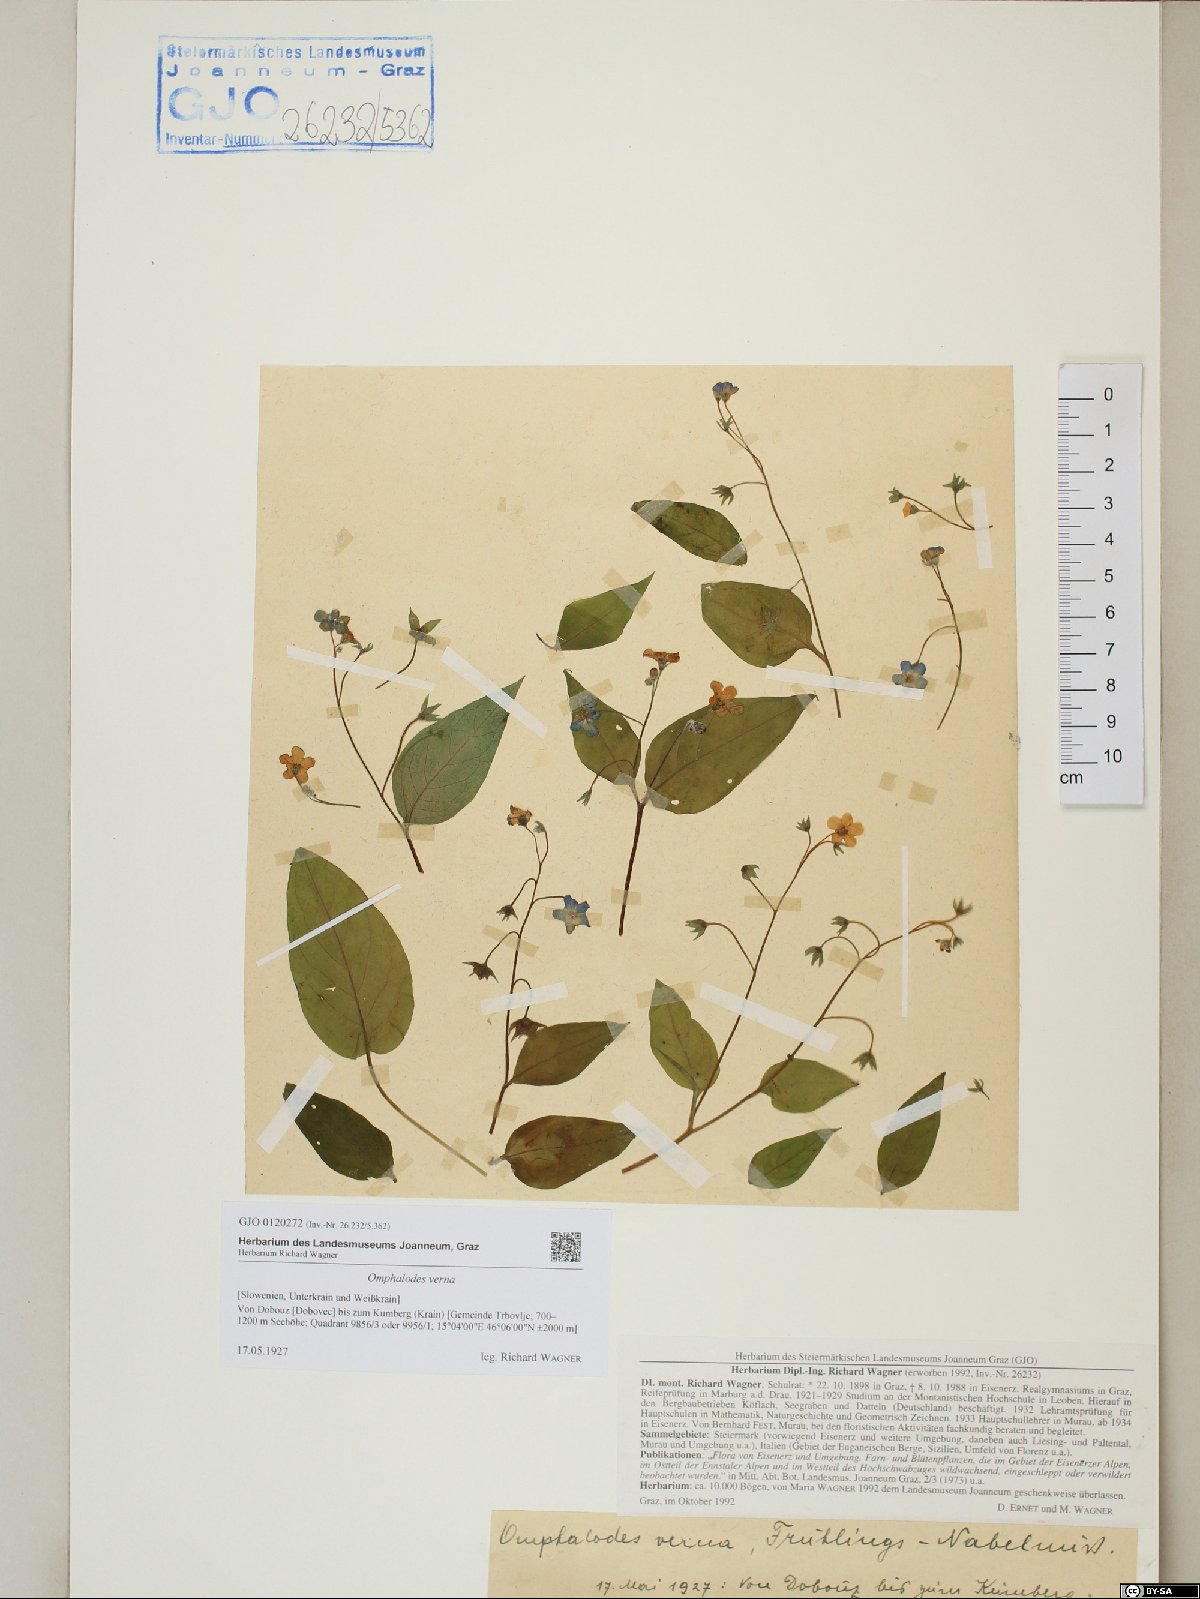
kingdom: Plantae
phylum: Tracheophyta
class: Magnoliopsida
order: Boraginales
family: Boraginaceae
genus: Omphalodes
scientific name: Omphalodes verna
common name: Blue-eyed-mary
